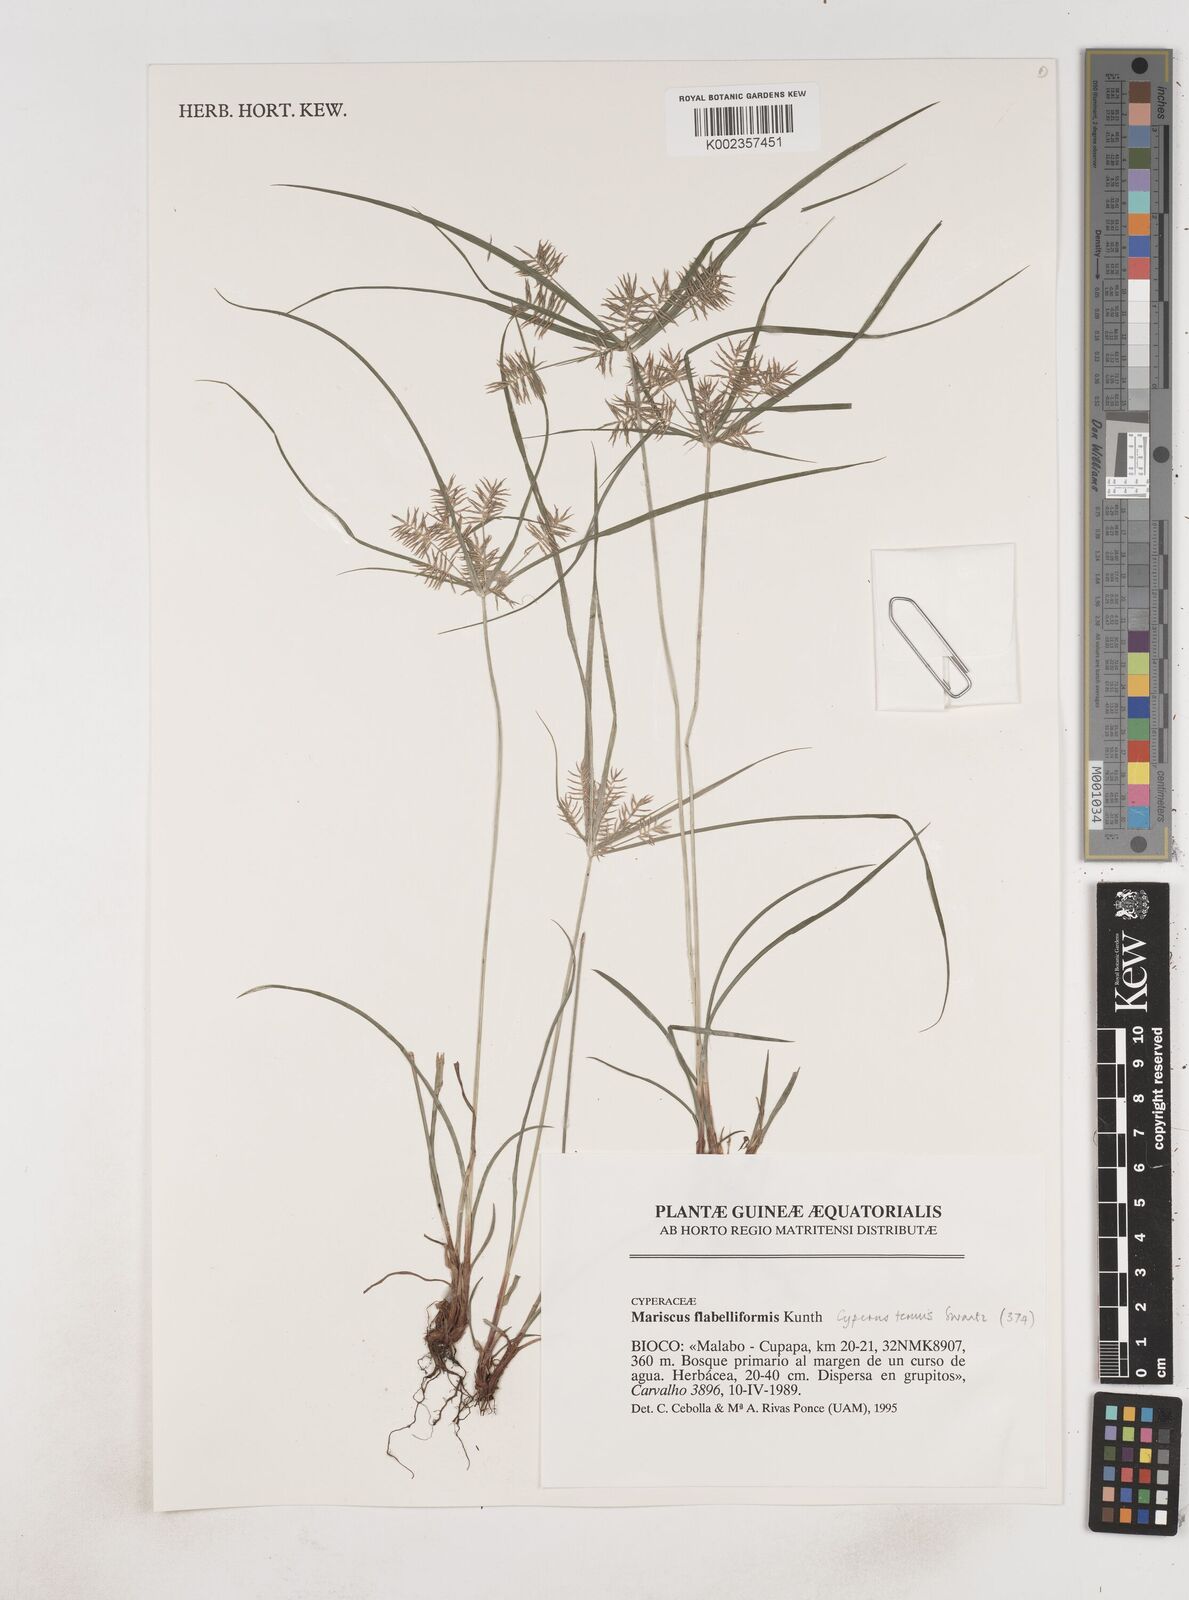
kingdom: Plantae
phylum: Tracheophyta
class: Liliopsida
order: Poales
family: Cyperaceae
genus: Cyperus
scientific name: Cyperus tenuis
